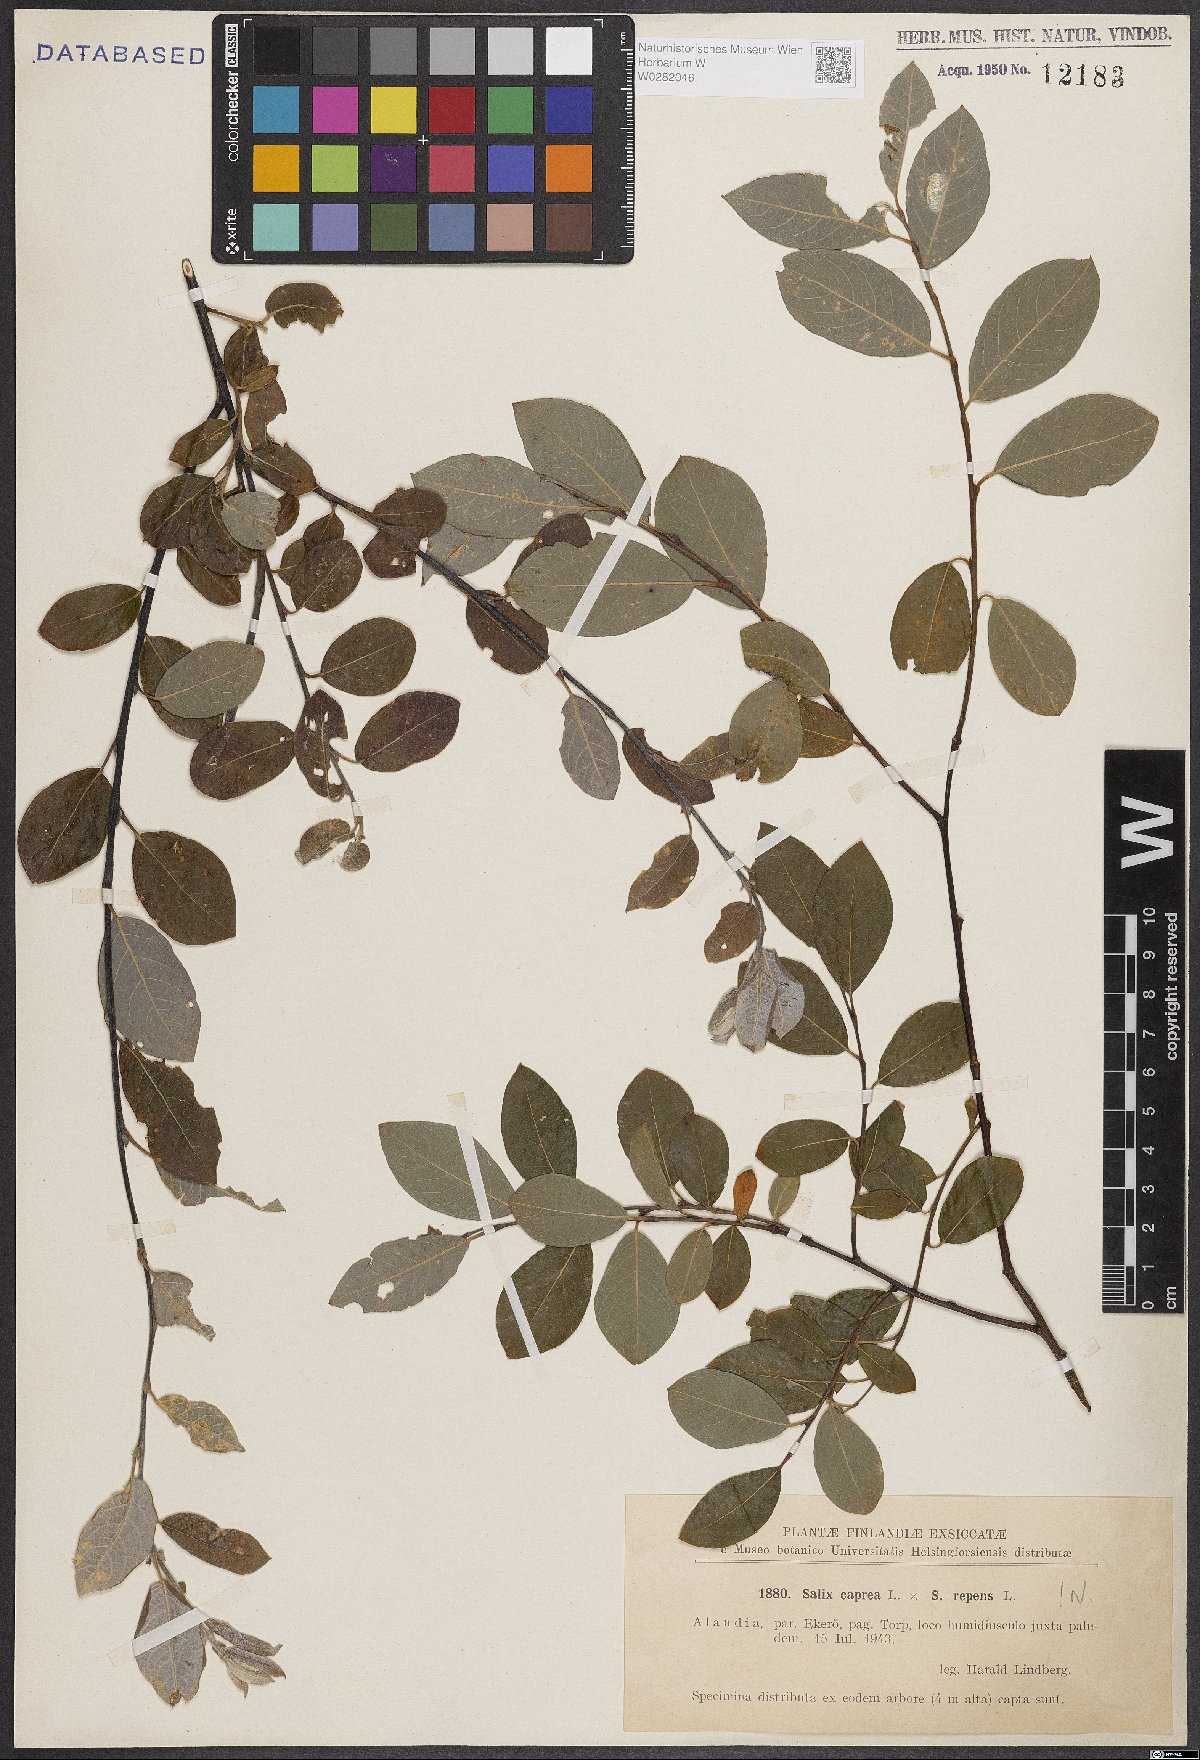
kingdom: Plantae
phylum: Tracheophyta
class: Magnoliopsida
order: Malpighiales
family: Salicaceae
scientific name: Salicaceae
